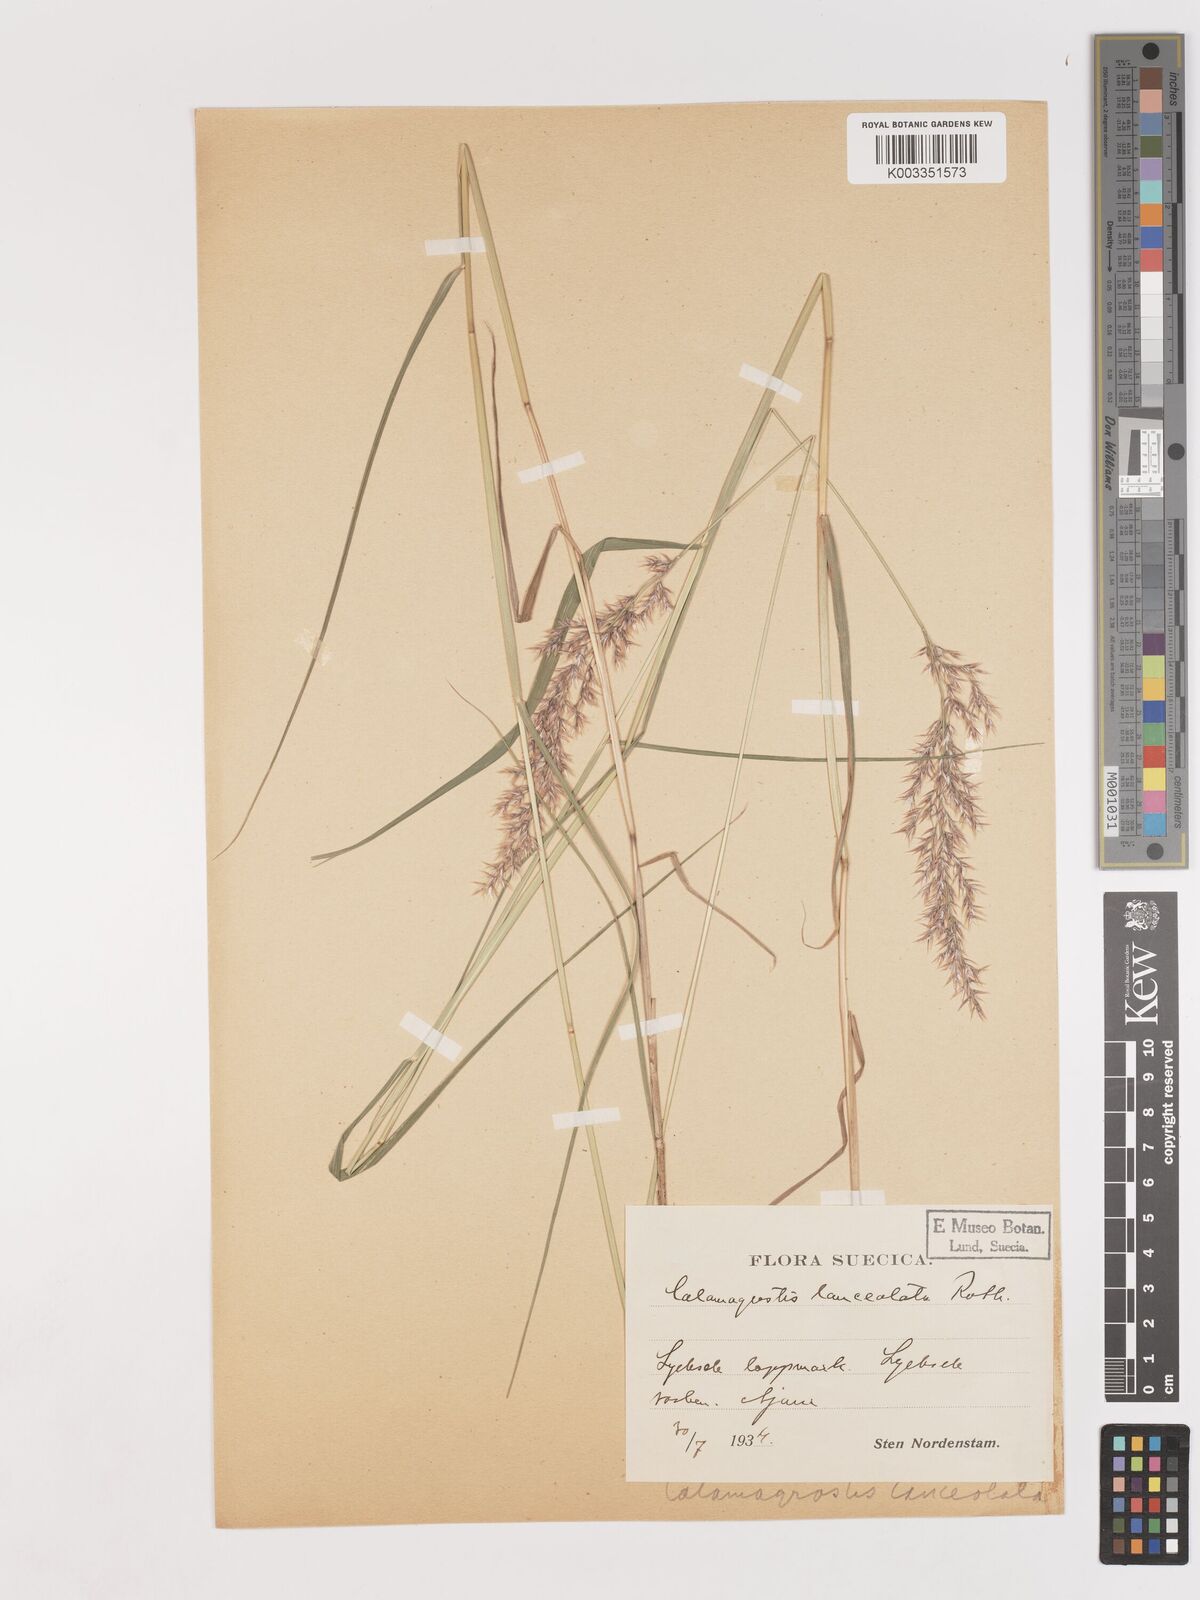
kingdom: Plantae
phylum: Tracheophyta
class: Liliopsida
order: Poales
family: Poaceae
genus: Calamagrostis
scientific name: Calamagrostis canescens
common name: Purple small-reed
